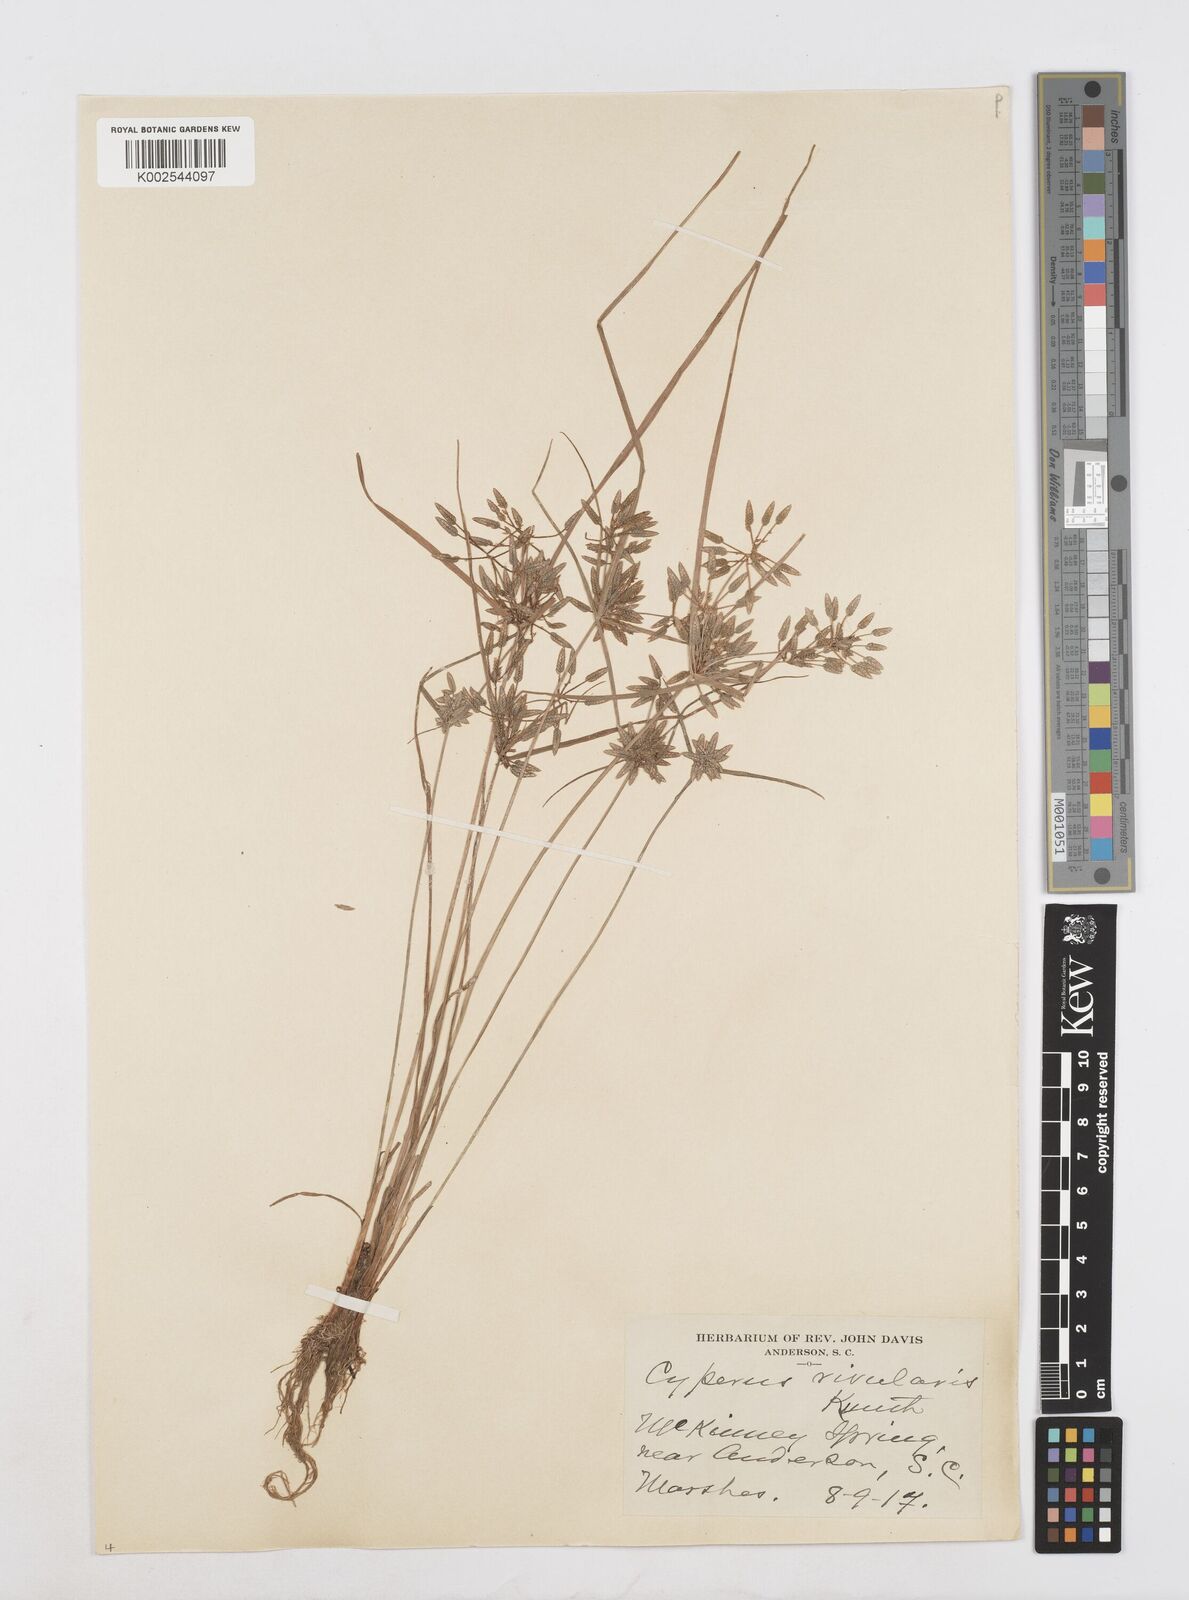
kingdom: Plantae
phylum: Tracheophyta
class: Liliopsida
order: Poales
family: Cyperaceae
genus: Cyperus
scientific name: Cyperus flavescens
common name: Yellow galingale
